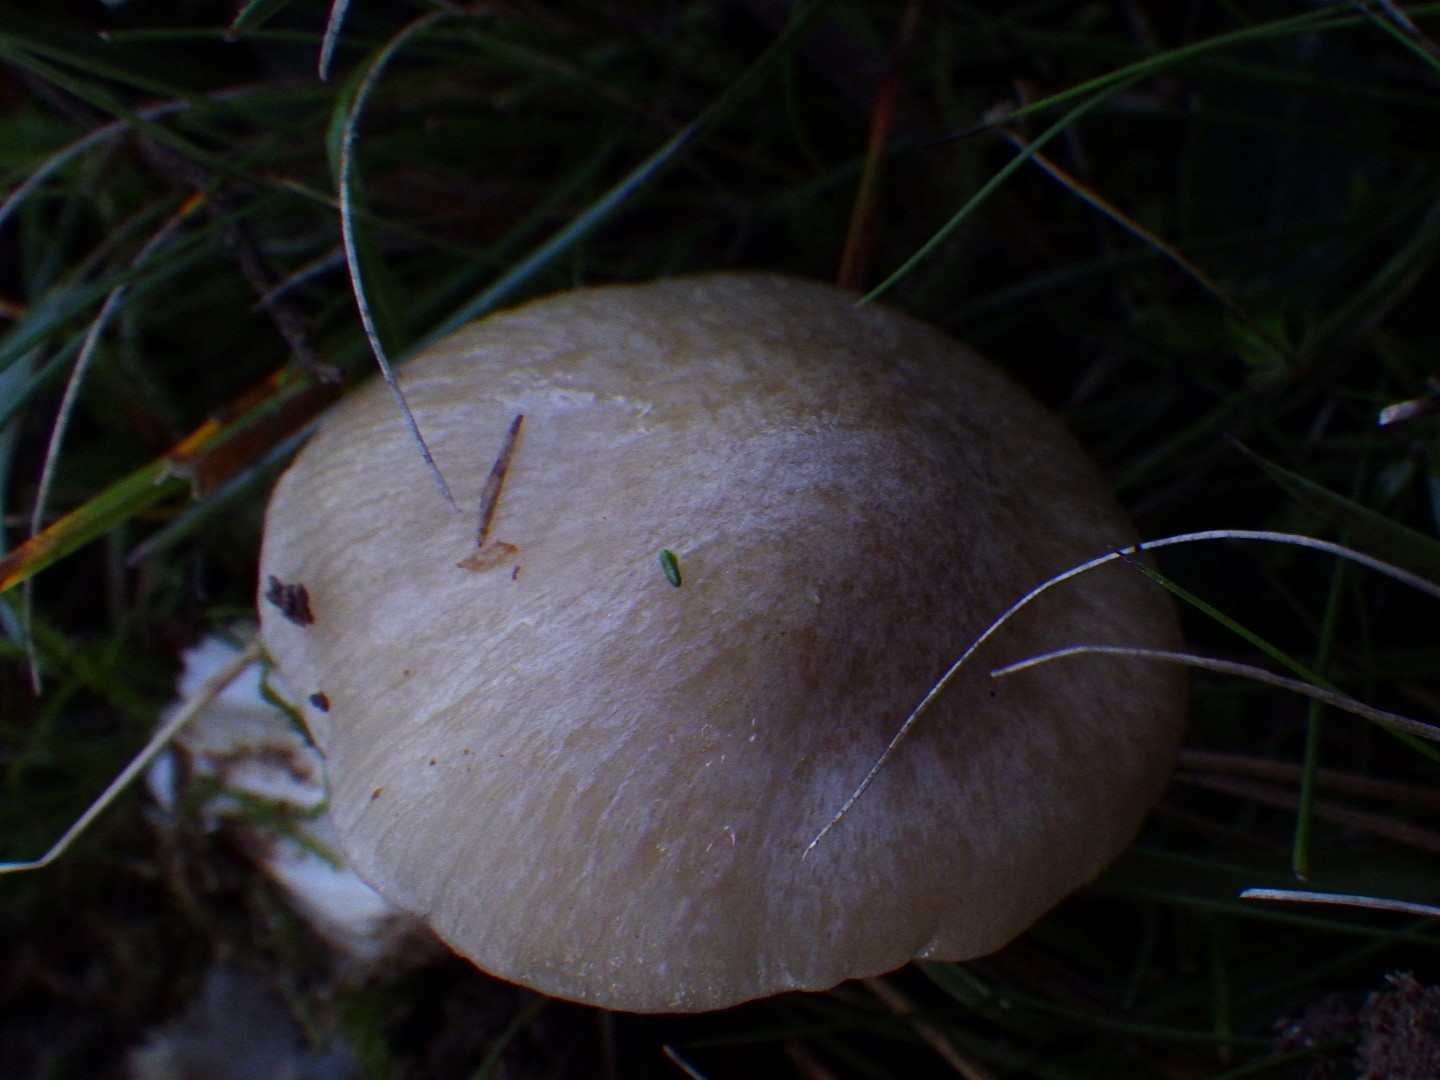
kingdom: Fungi
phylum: Basidiomycota
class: Agaricomycetes
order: Agaricales
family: Entolomataceae
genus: Entoloma
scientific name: Entoloma prunuloides
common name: mel-rødblad
